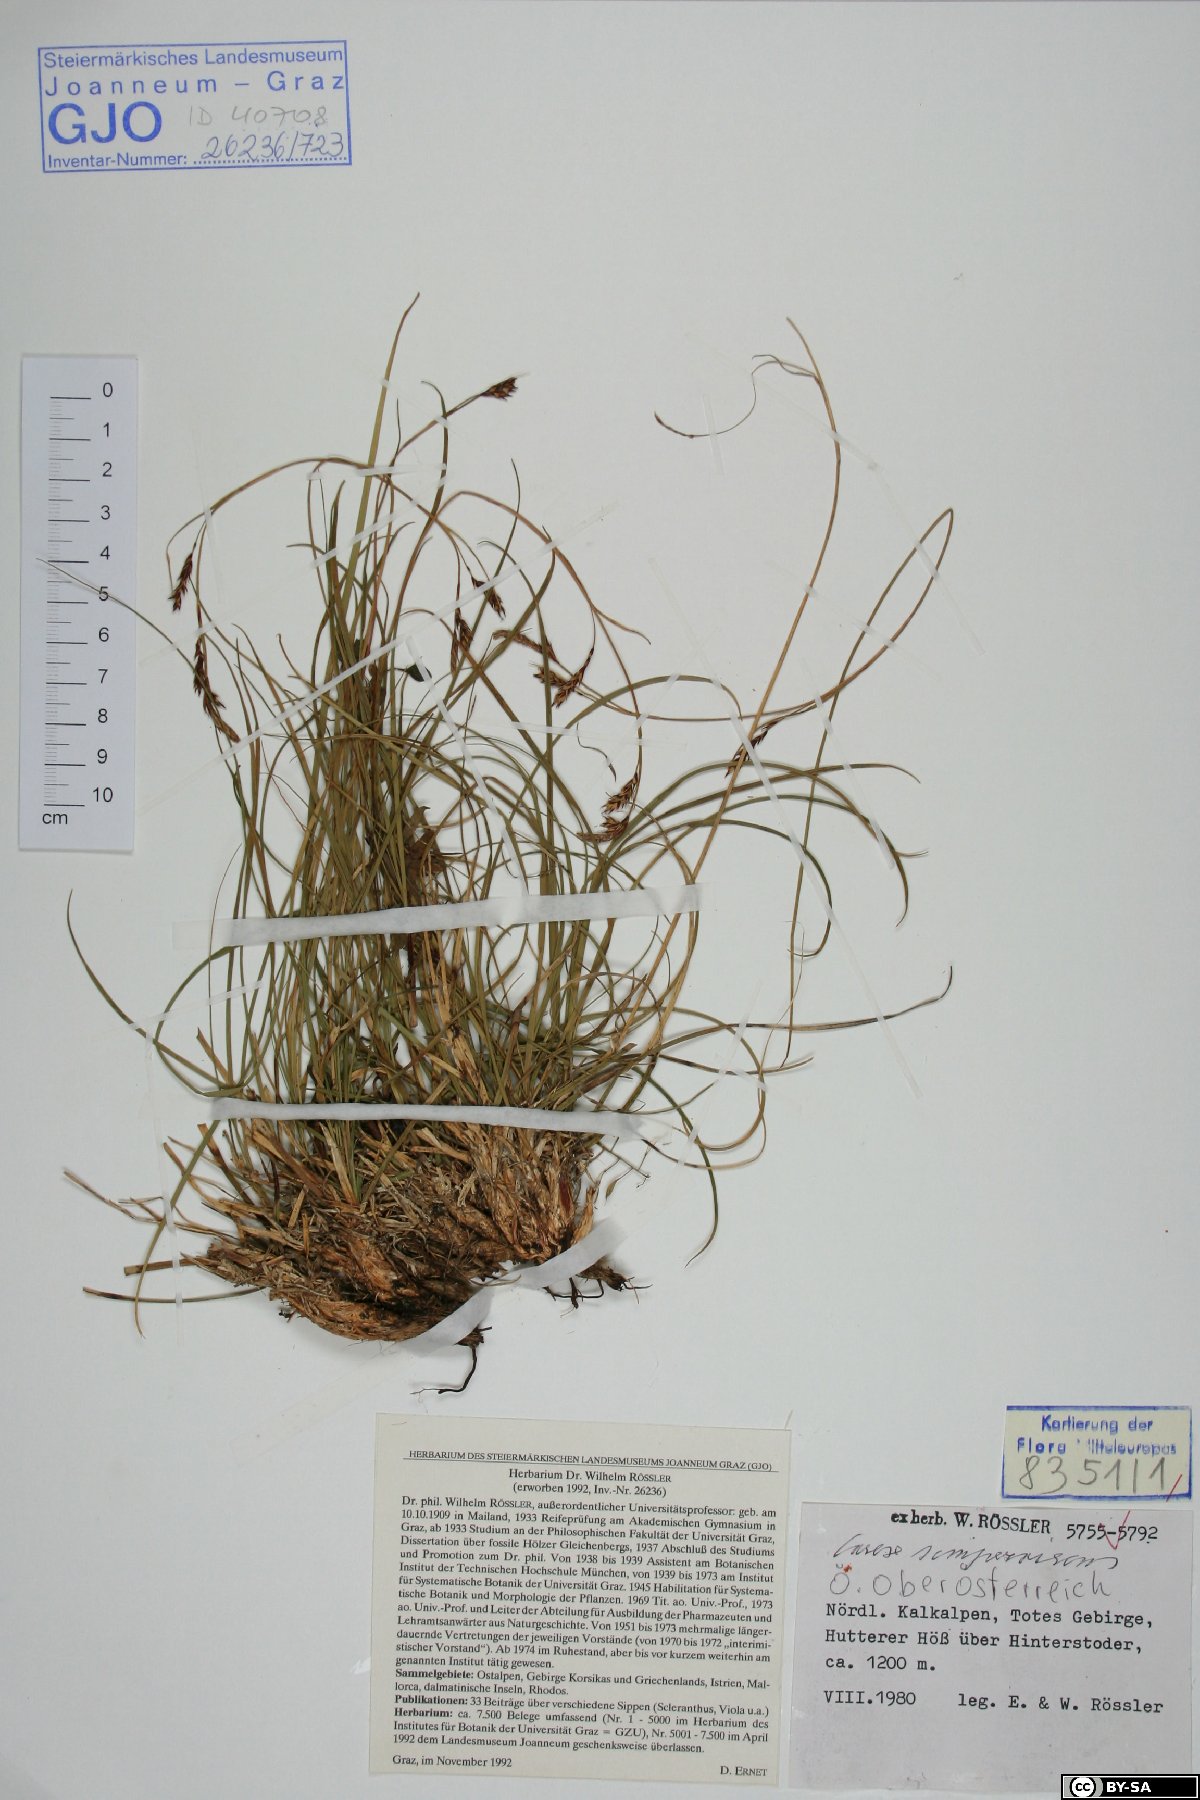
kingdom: Plantae
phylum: Tracheophyta
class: Liliopsida
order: Poales
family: Cyperaceae
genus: Carex
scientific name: Carex sempervirens
